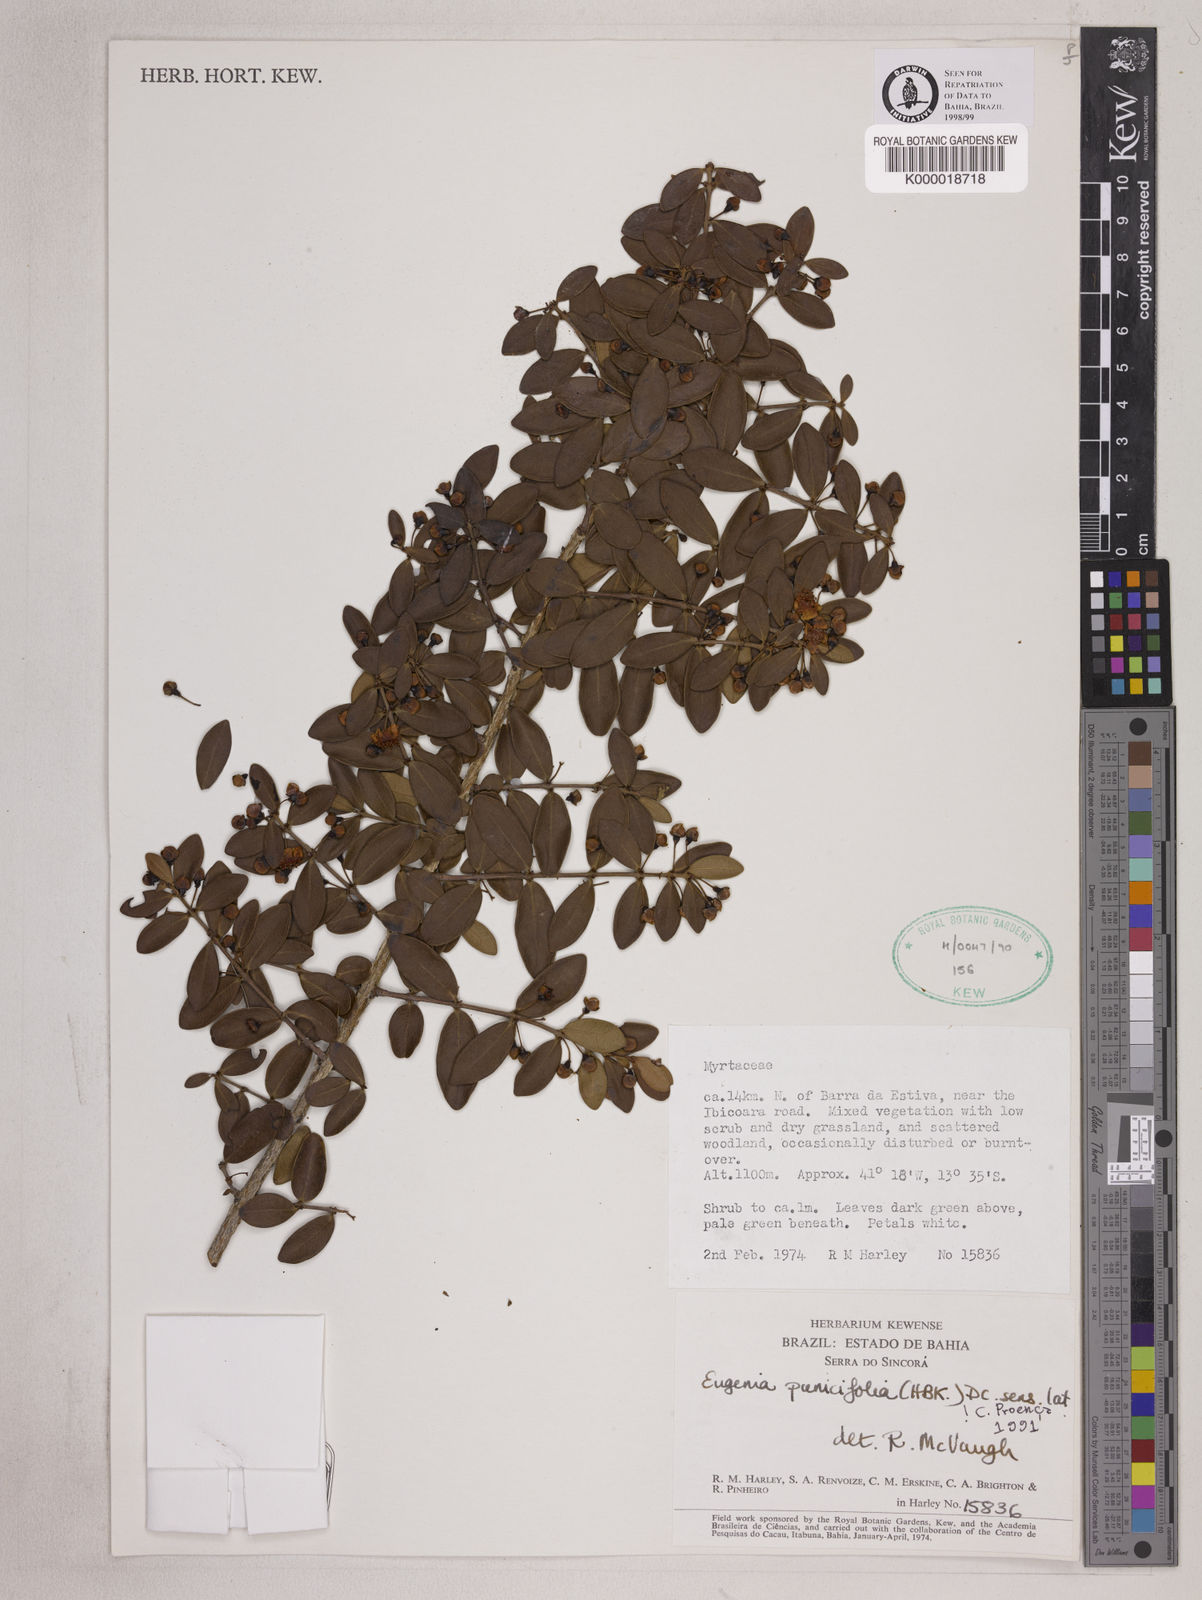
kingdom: Plantae
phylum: Tracheophyta
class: Magnoliopsida
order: Myrtales
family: Myrtaceae
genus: Eugenia
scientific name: Eugenia punicifolia
